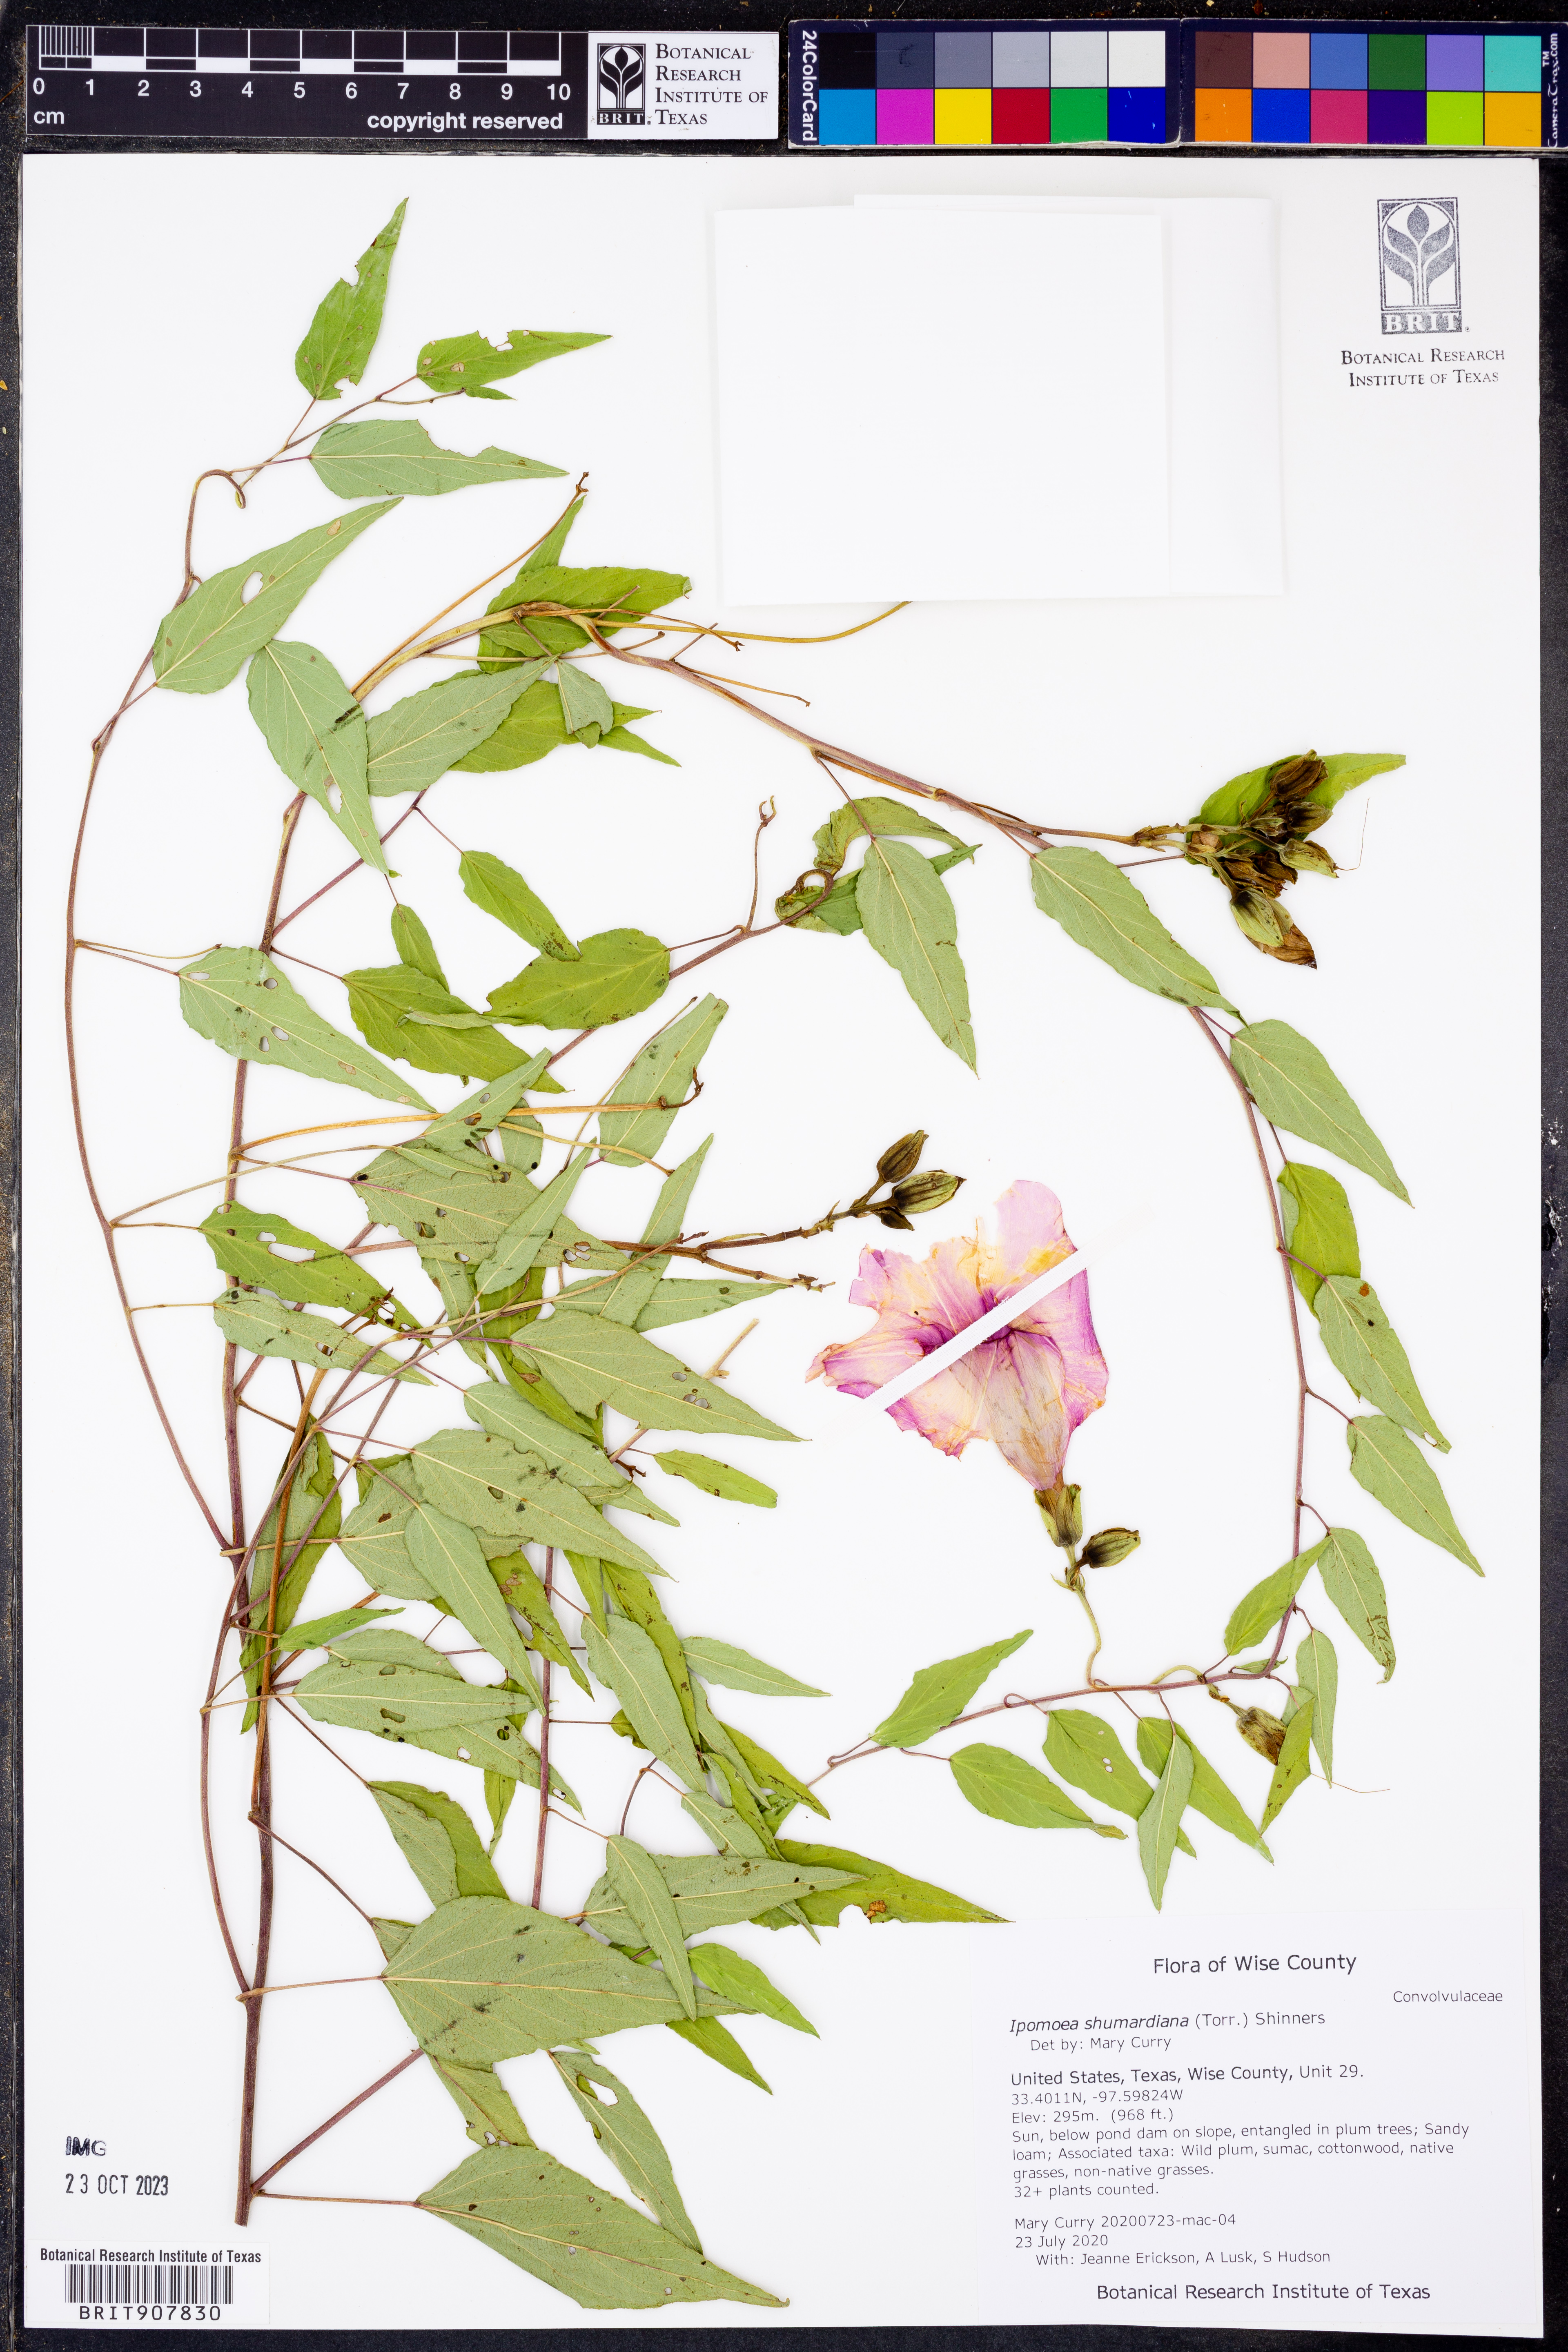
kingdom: Plantae
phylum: Tracheophyta
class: Magnoliopsida
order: Solanales
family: Convolvulaceae
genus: Ipomoea
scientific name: Ipomoea shumardiana
